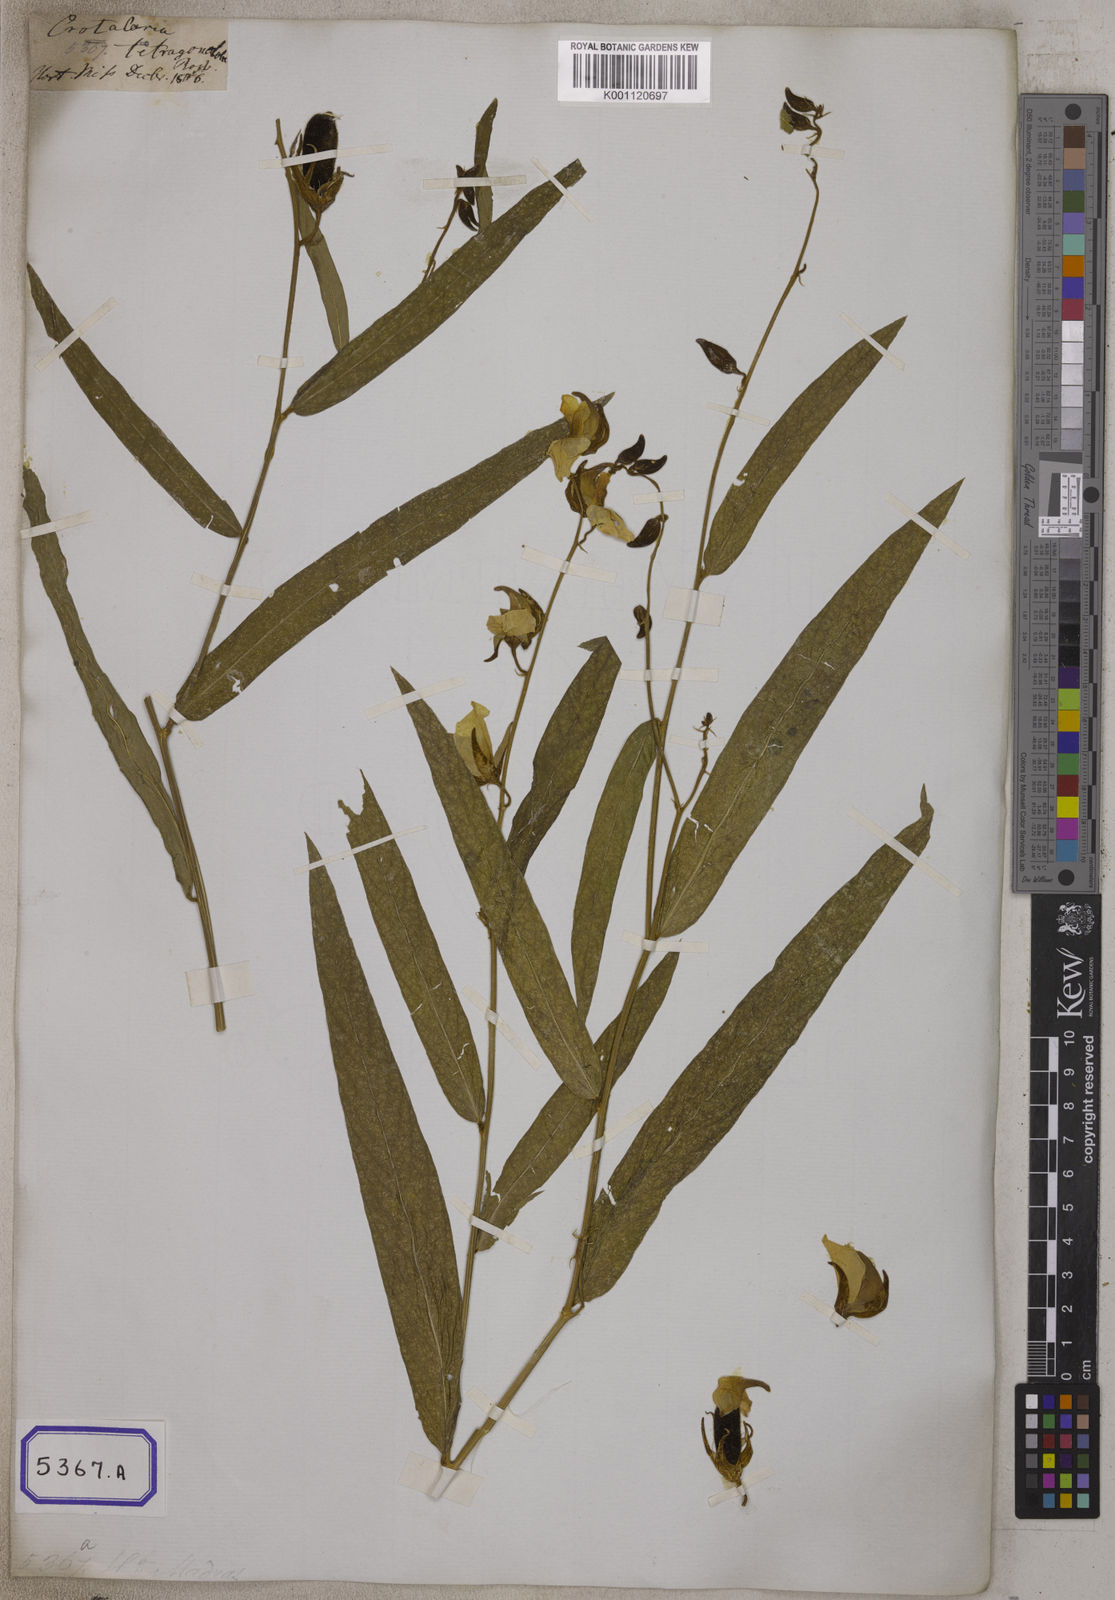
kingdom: Plantae
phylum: Tracheophyta
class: Magnoliopsida
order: Fabales
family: Fabaceae
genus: Crotalaria
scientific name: Crotalaria
